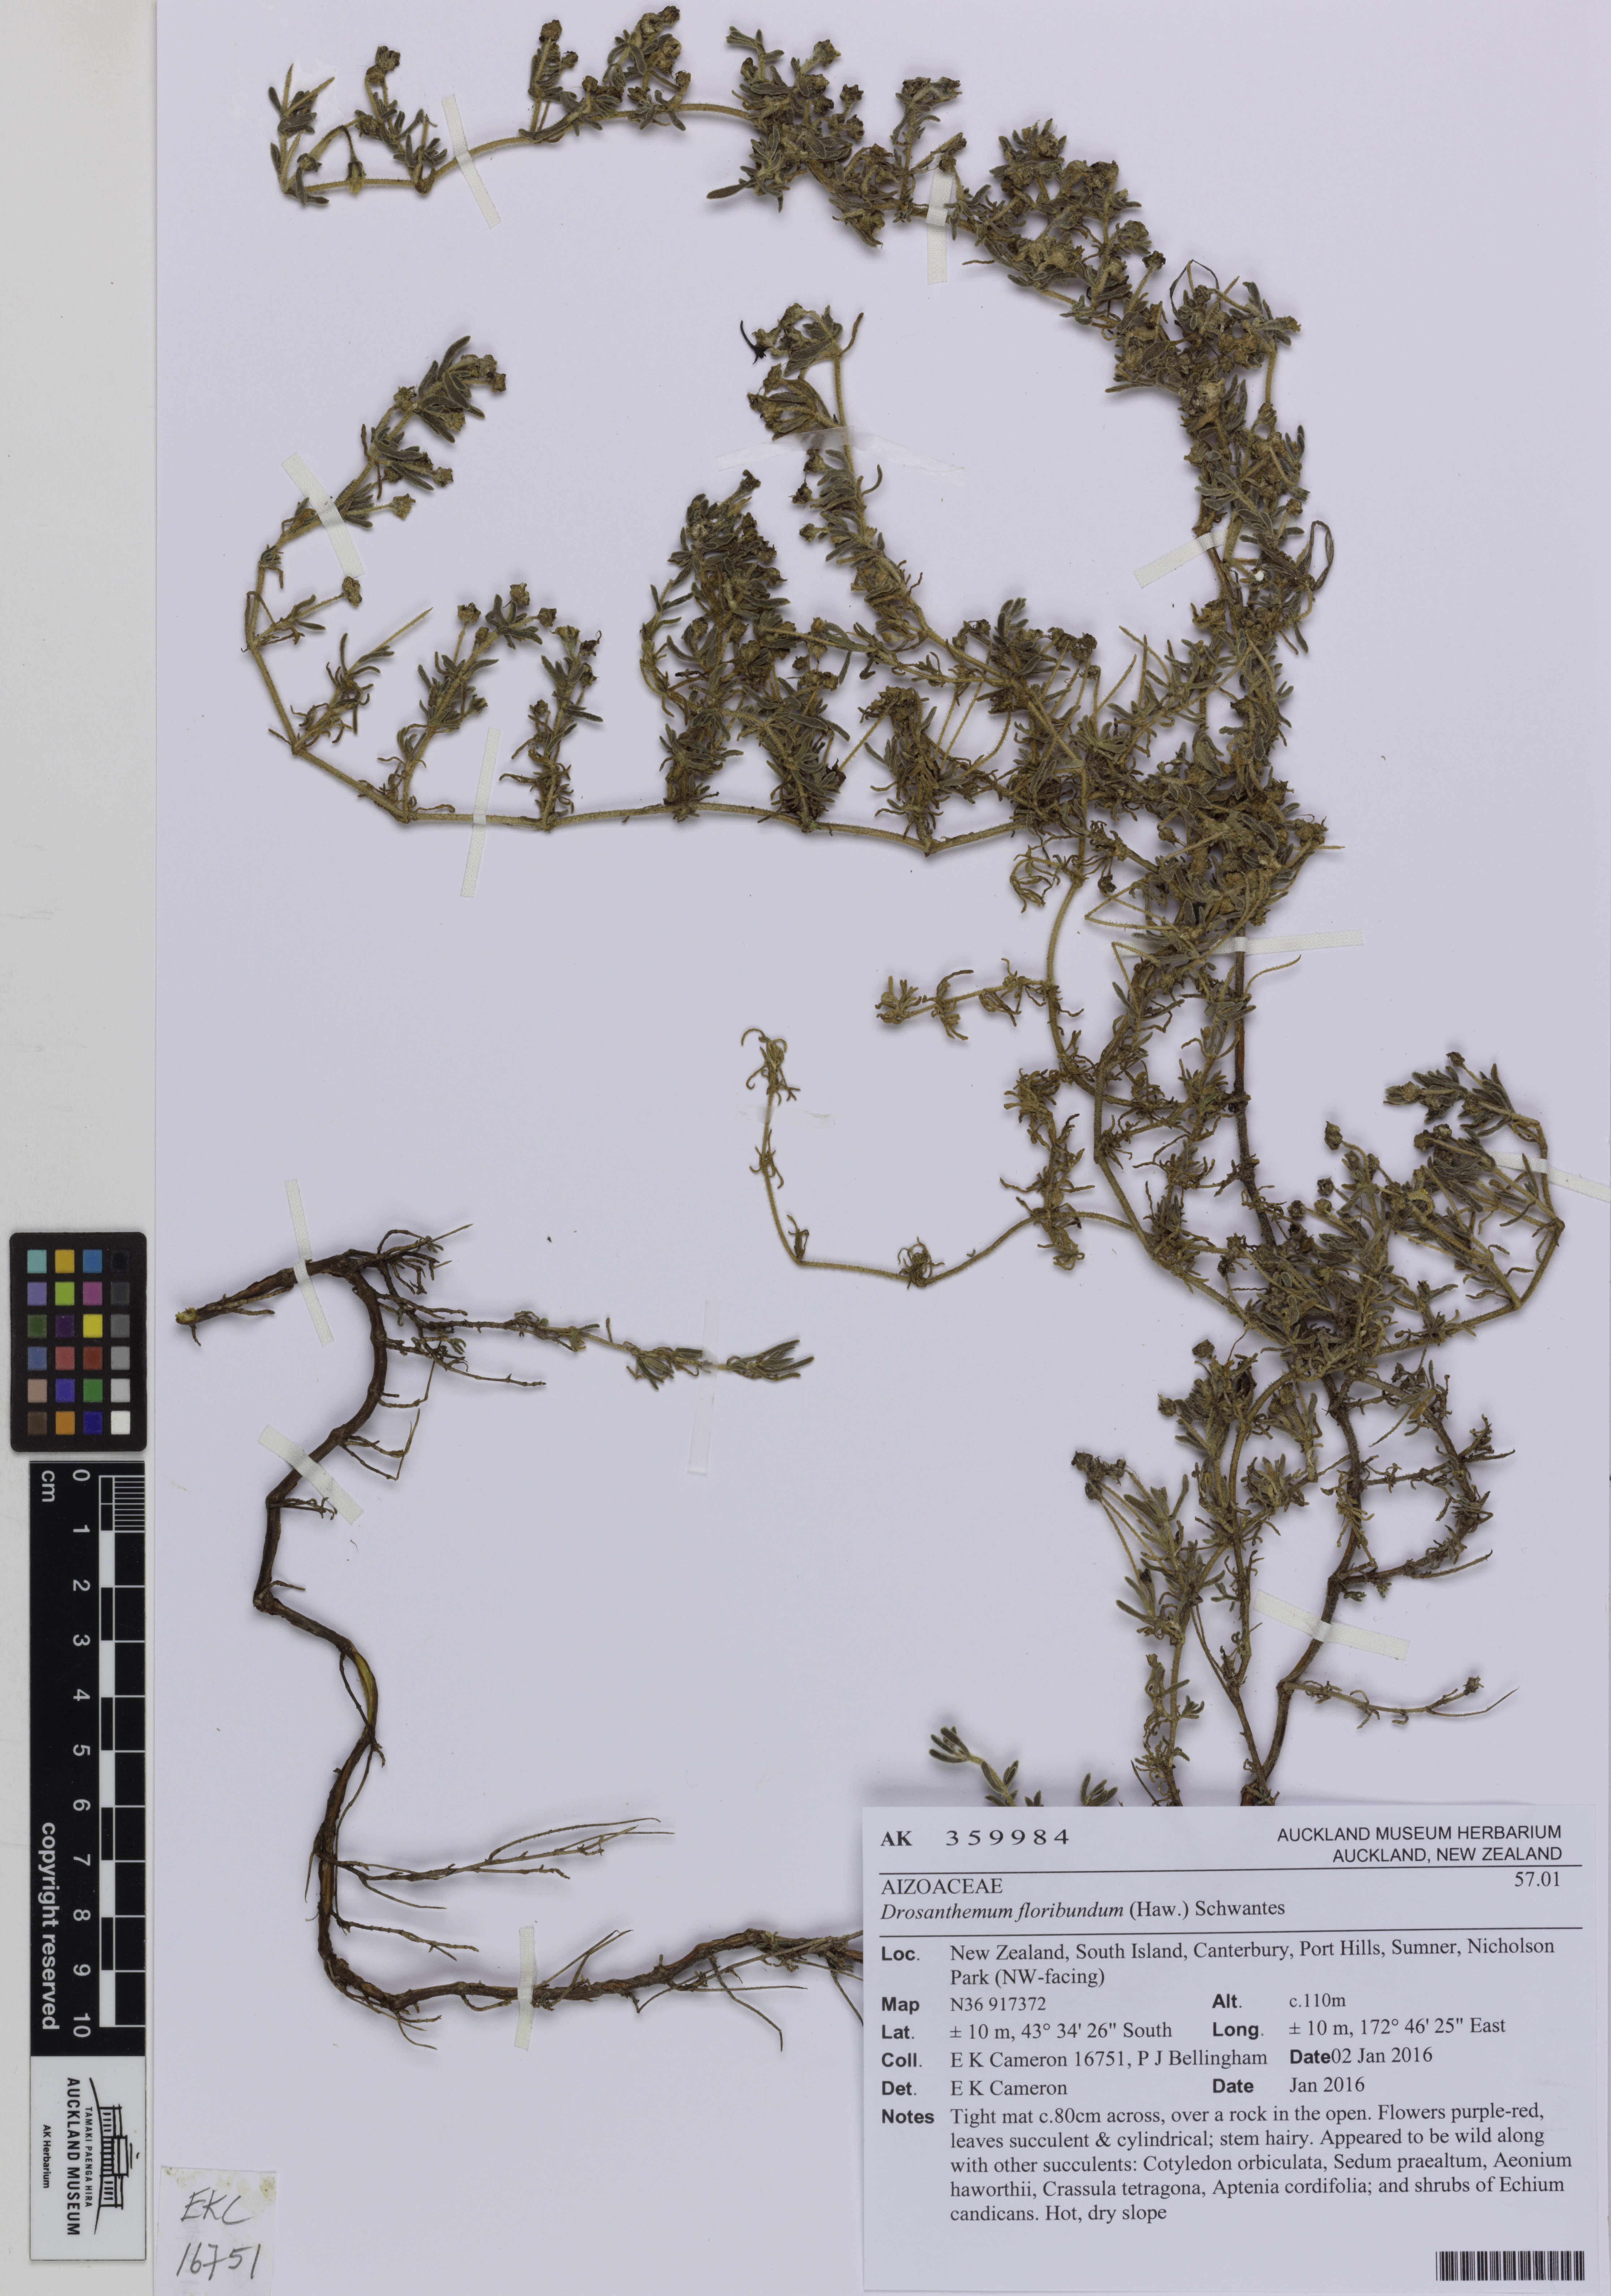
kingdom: Plantae
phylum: Tracheophyta
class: Magnoliopsida
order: Caryophyllales
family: Aizoaceae
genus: Drosanthemum
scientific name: Drosanthemum floribundum
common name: Pale dewplant
